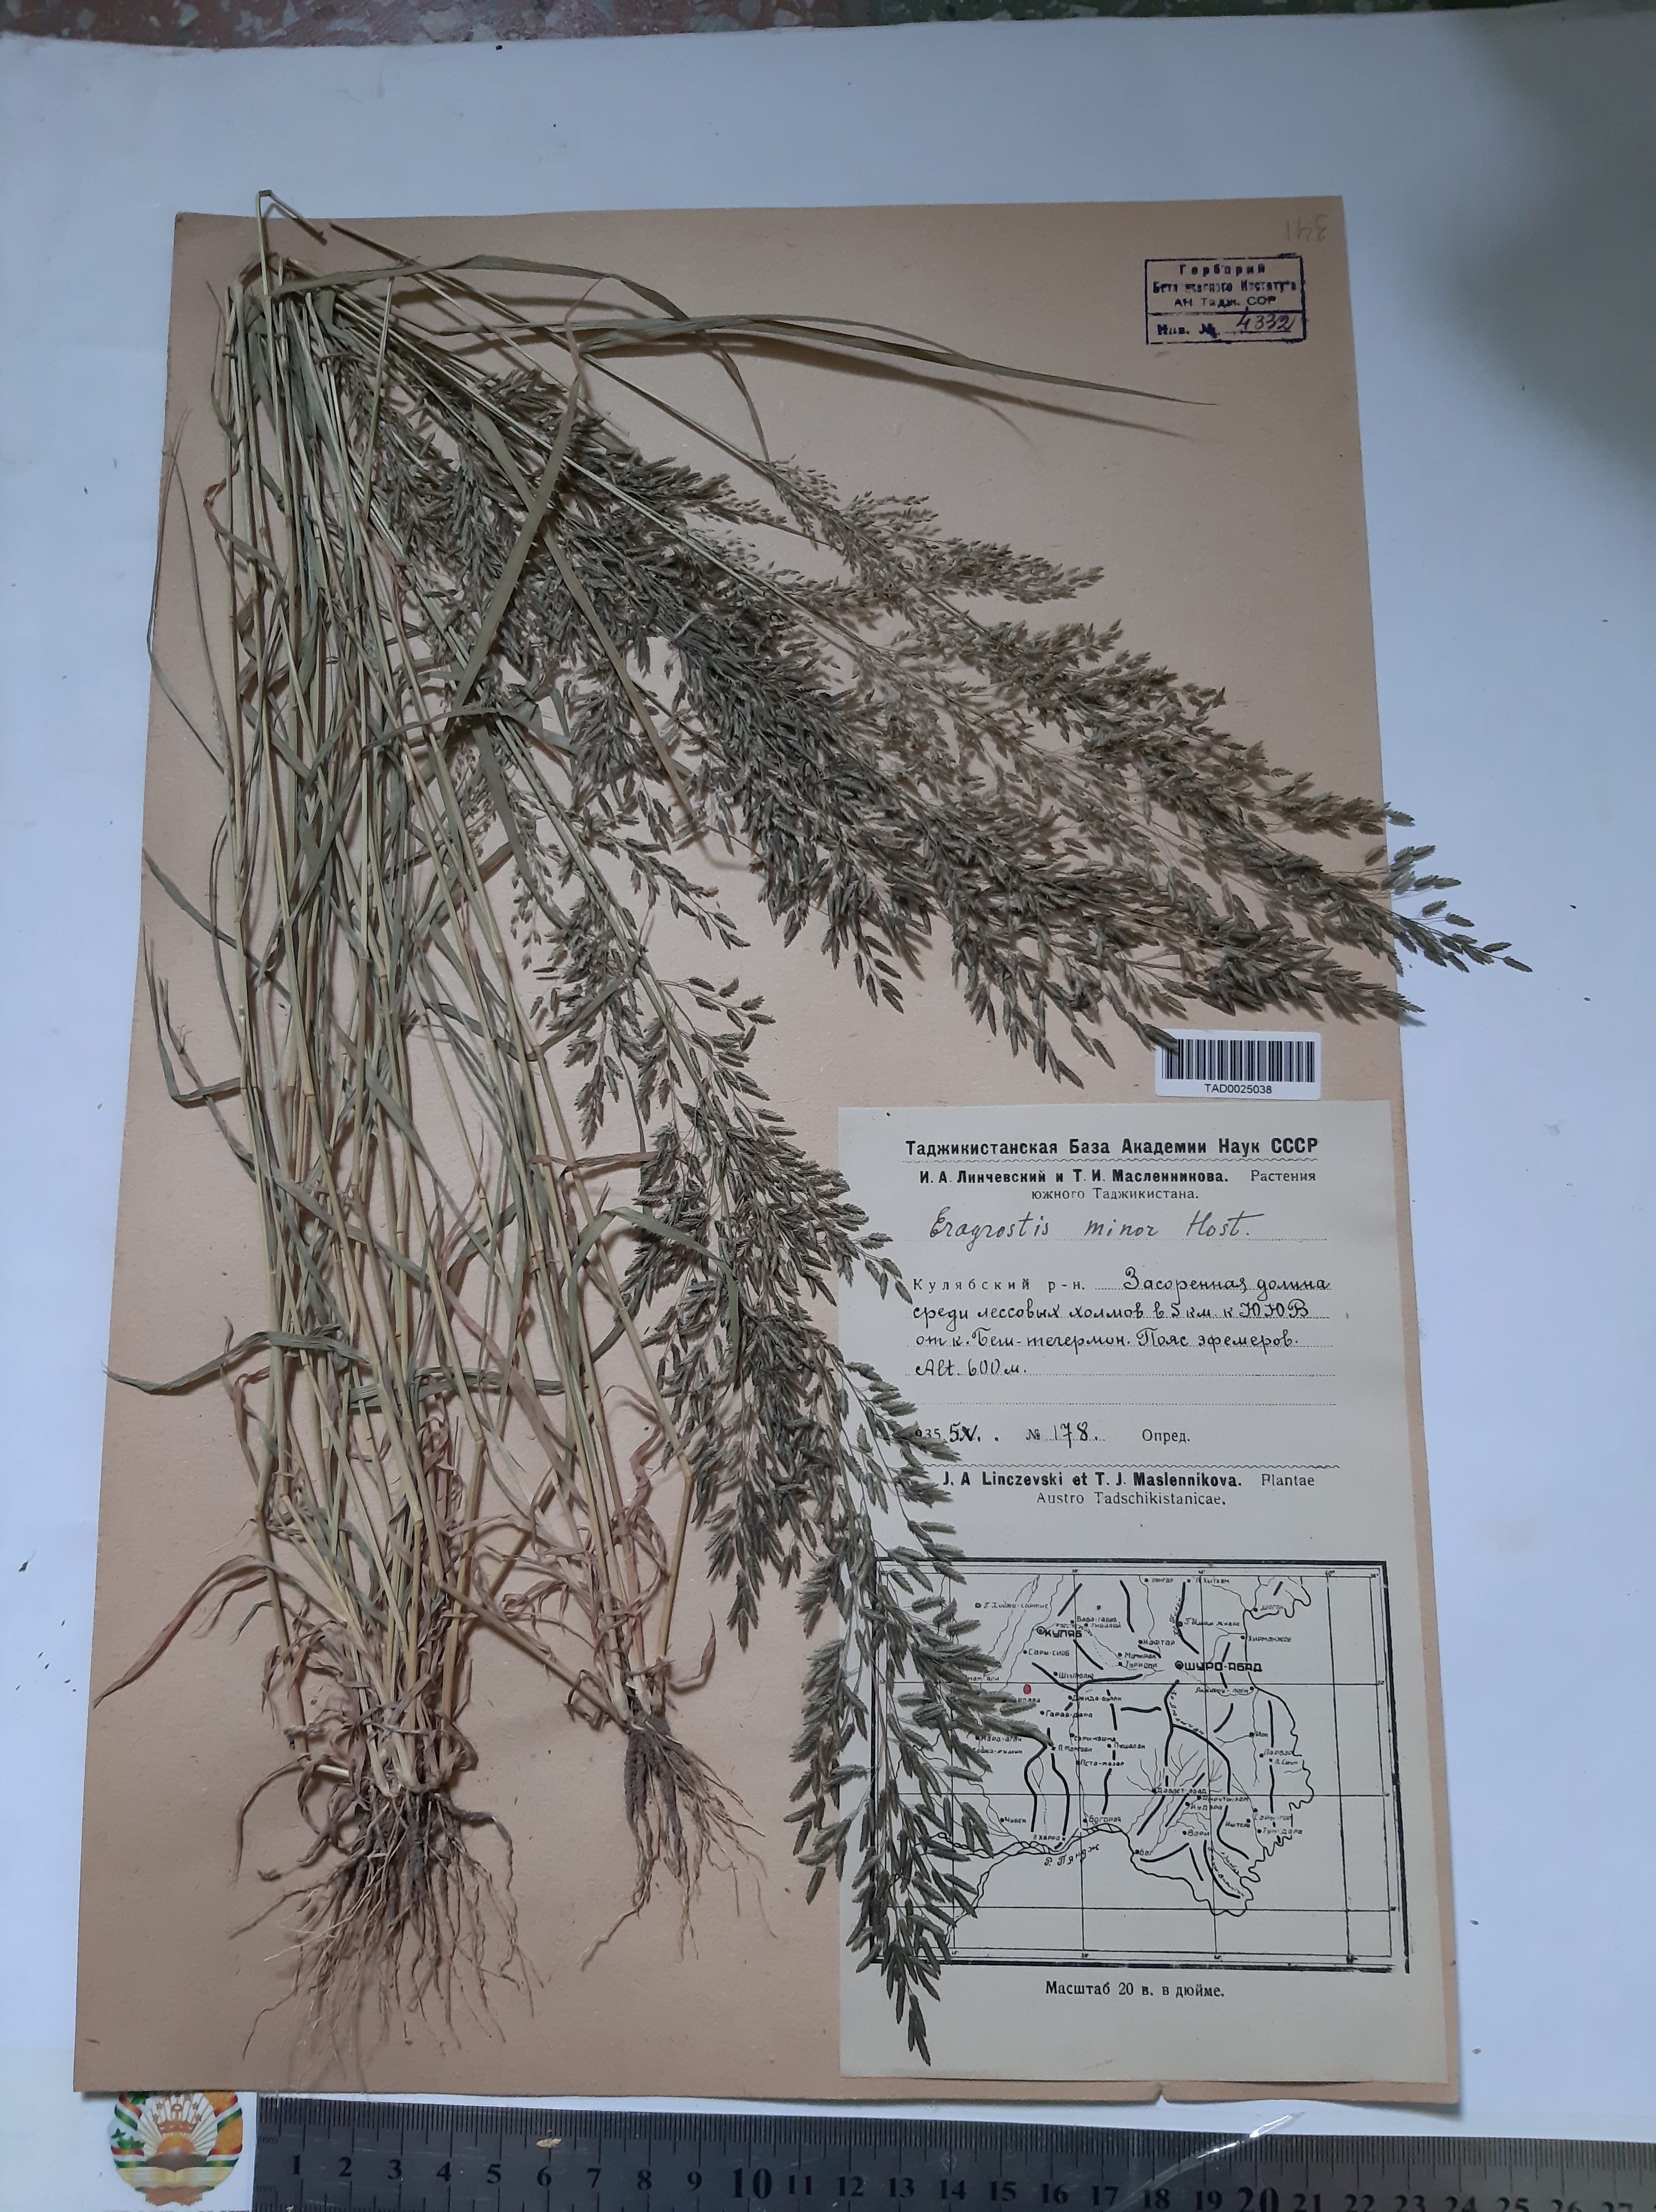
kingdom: Plantae
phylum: Tracheophyta
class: Liliopsida
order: Poales
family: Poaceae
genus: Eragrostis
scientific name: Eragrostis minor
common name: Small love-grass
